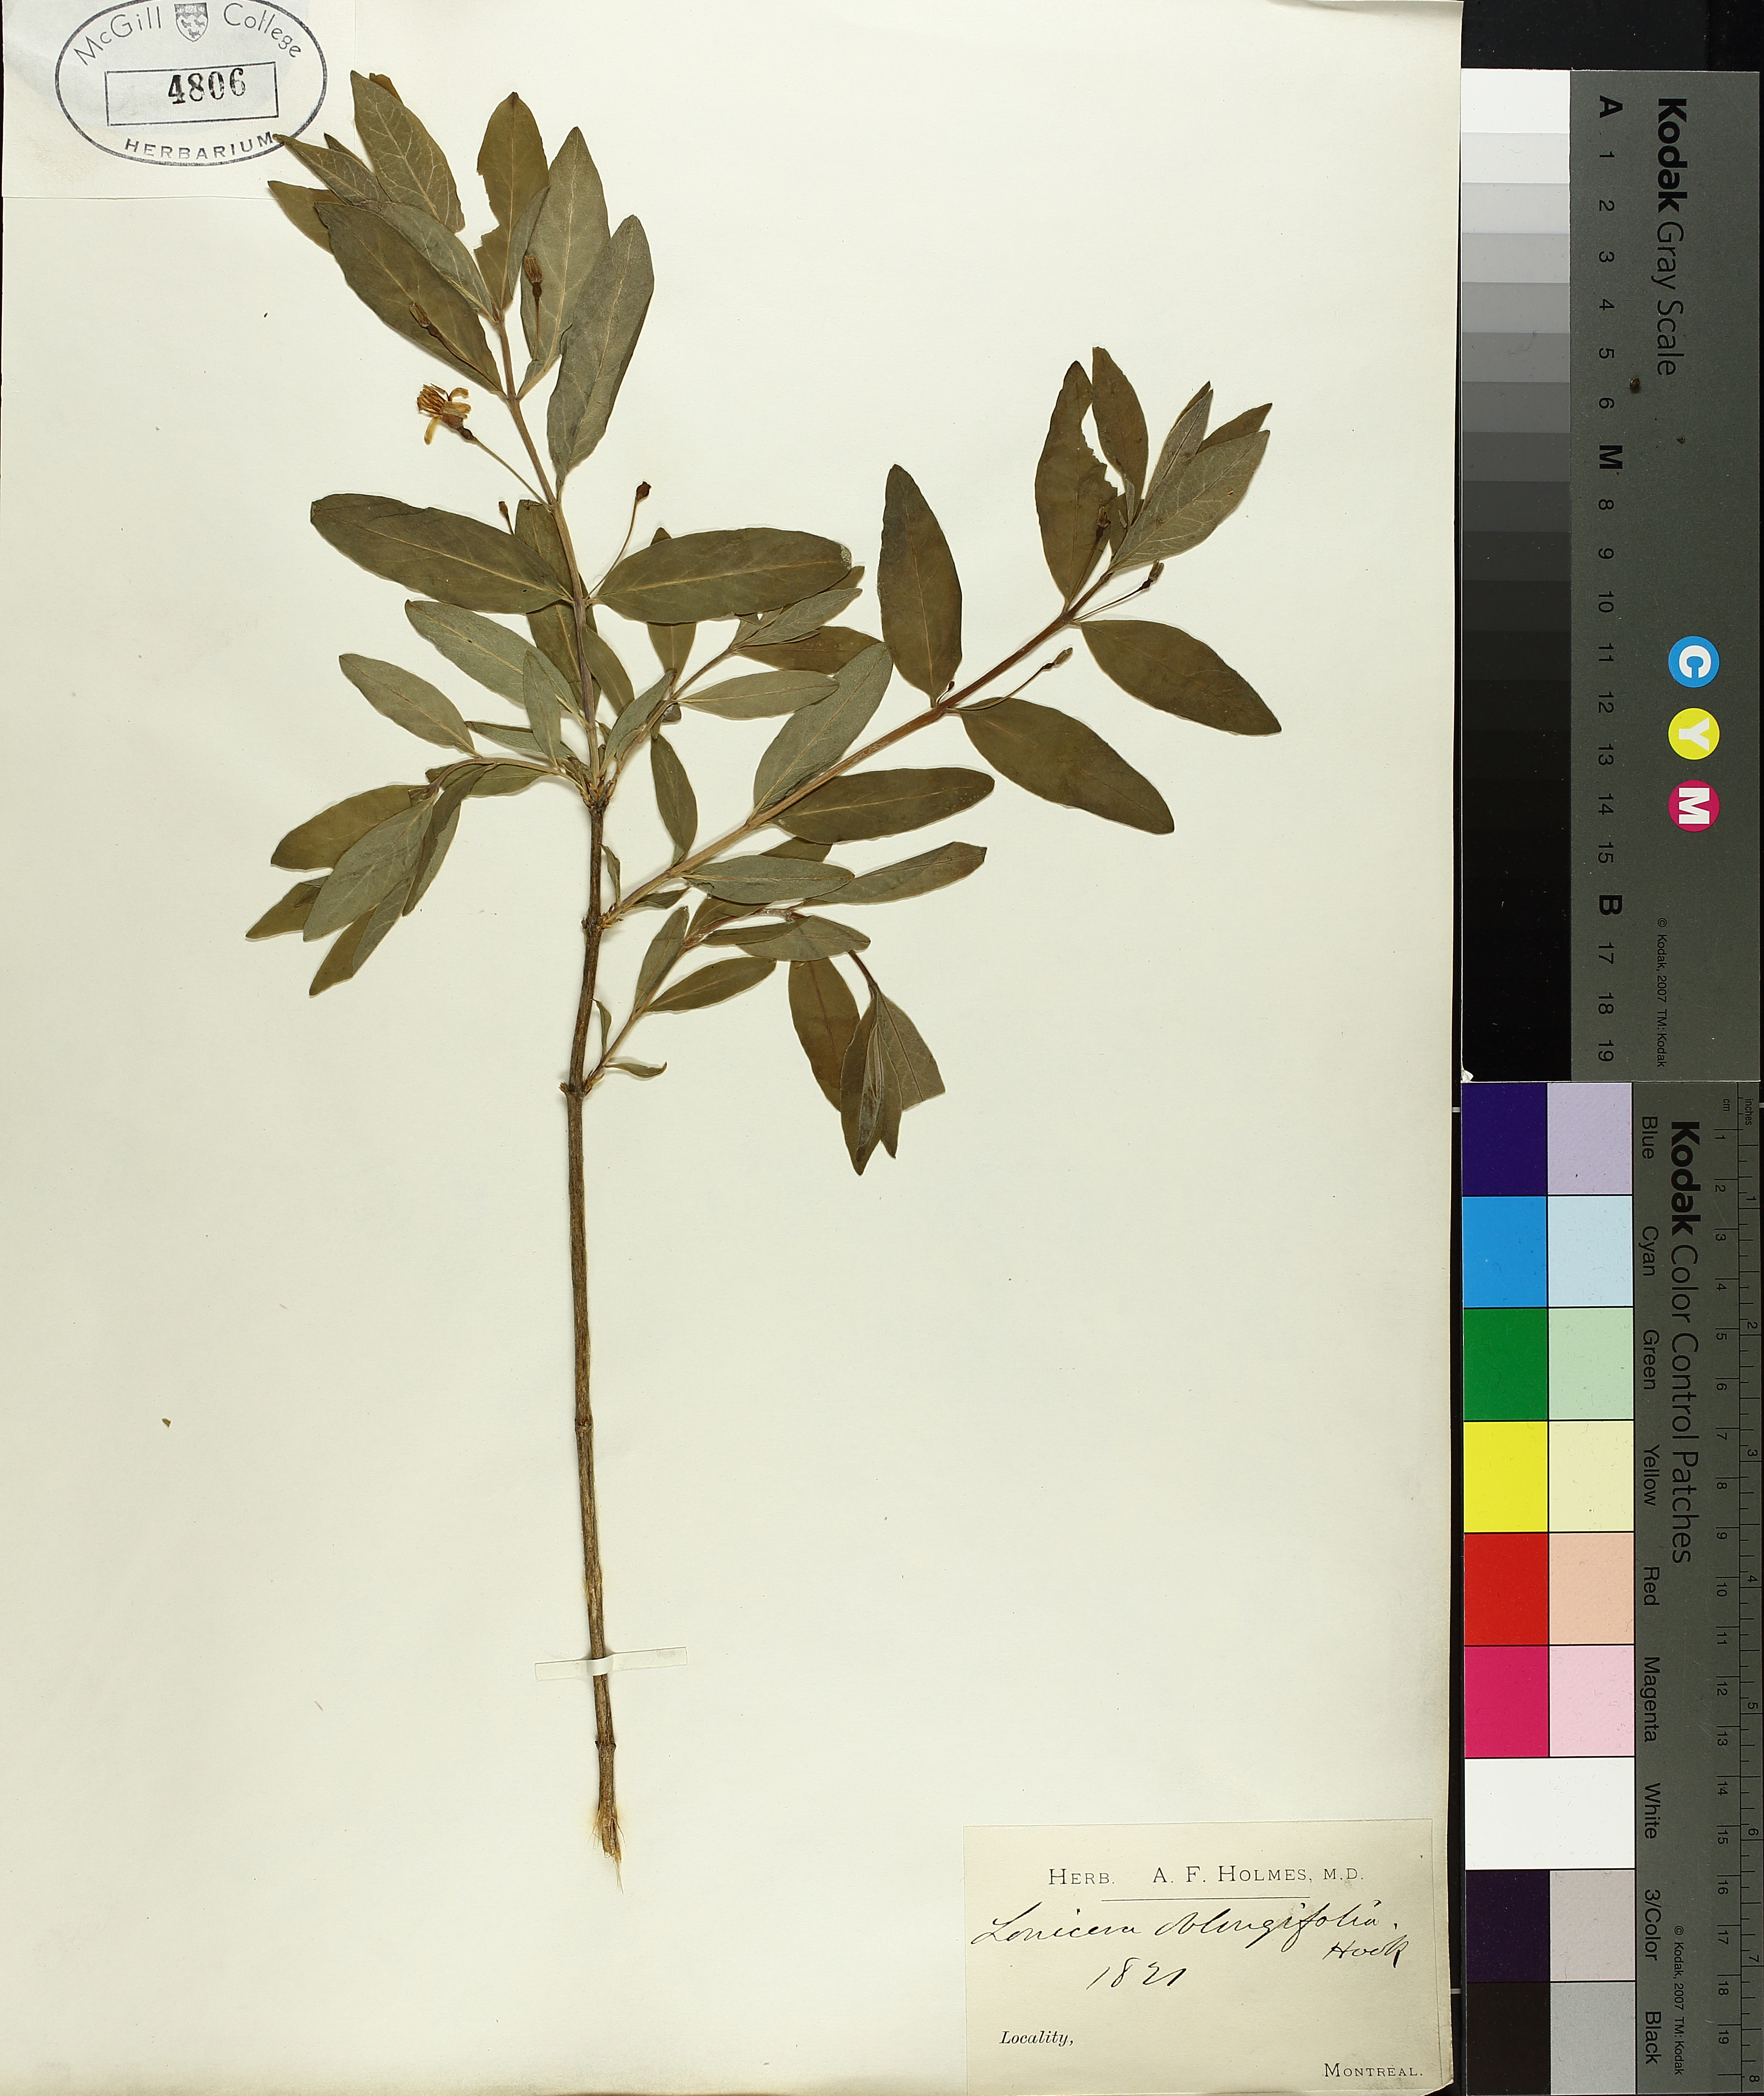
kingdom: Plantae
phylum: Tracheophyta
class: Magnoliopsida
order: Dipsacales
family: Caprifoliaceae
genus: Lonicera
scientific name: Lonicera oblongifolia
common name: Swamp fly honeysuckle
